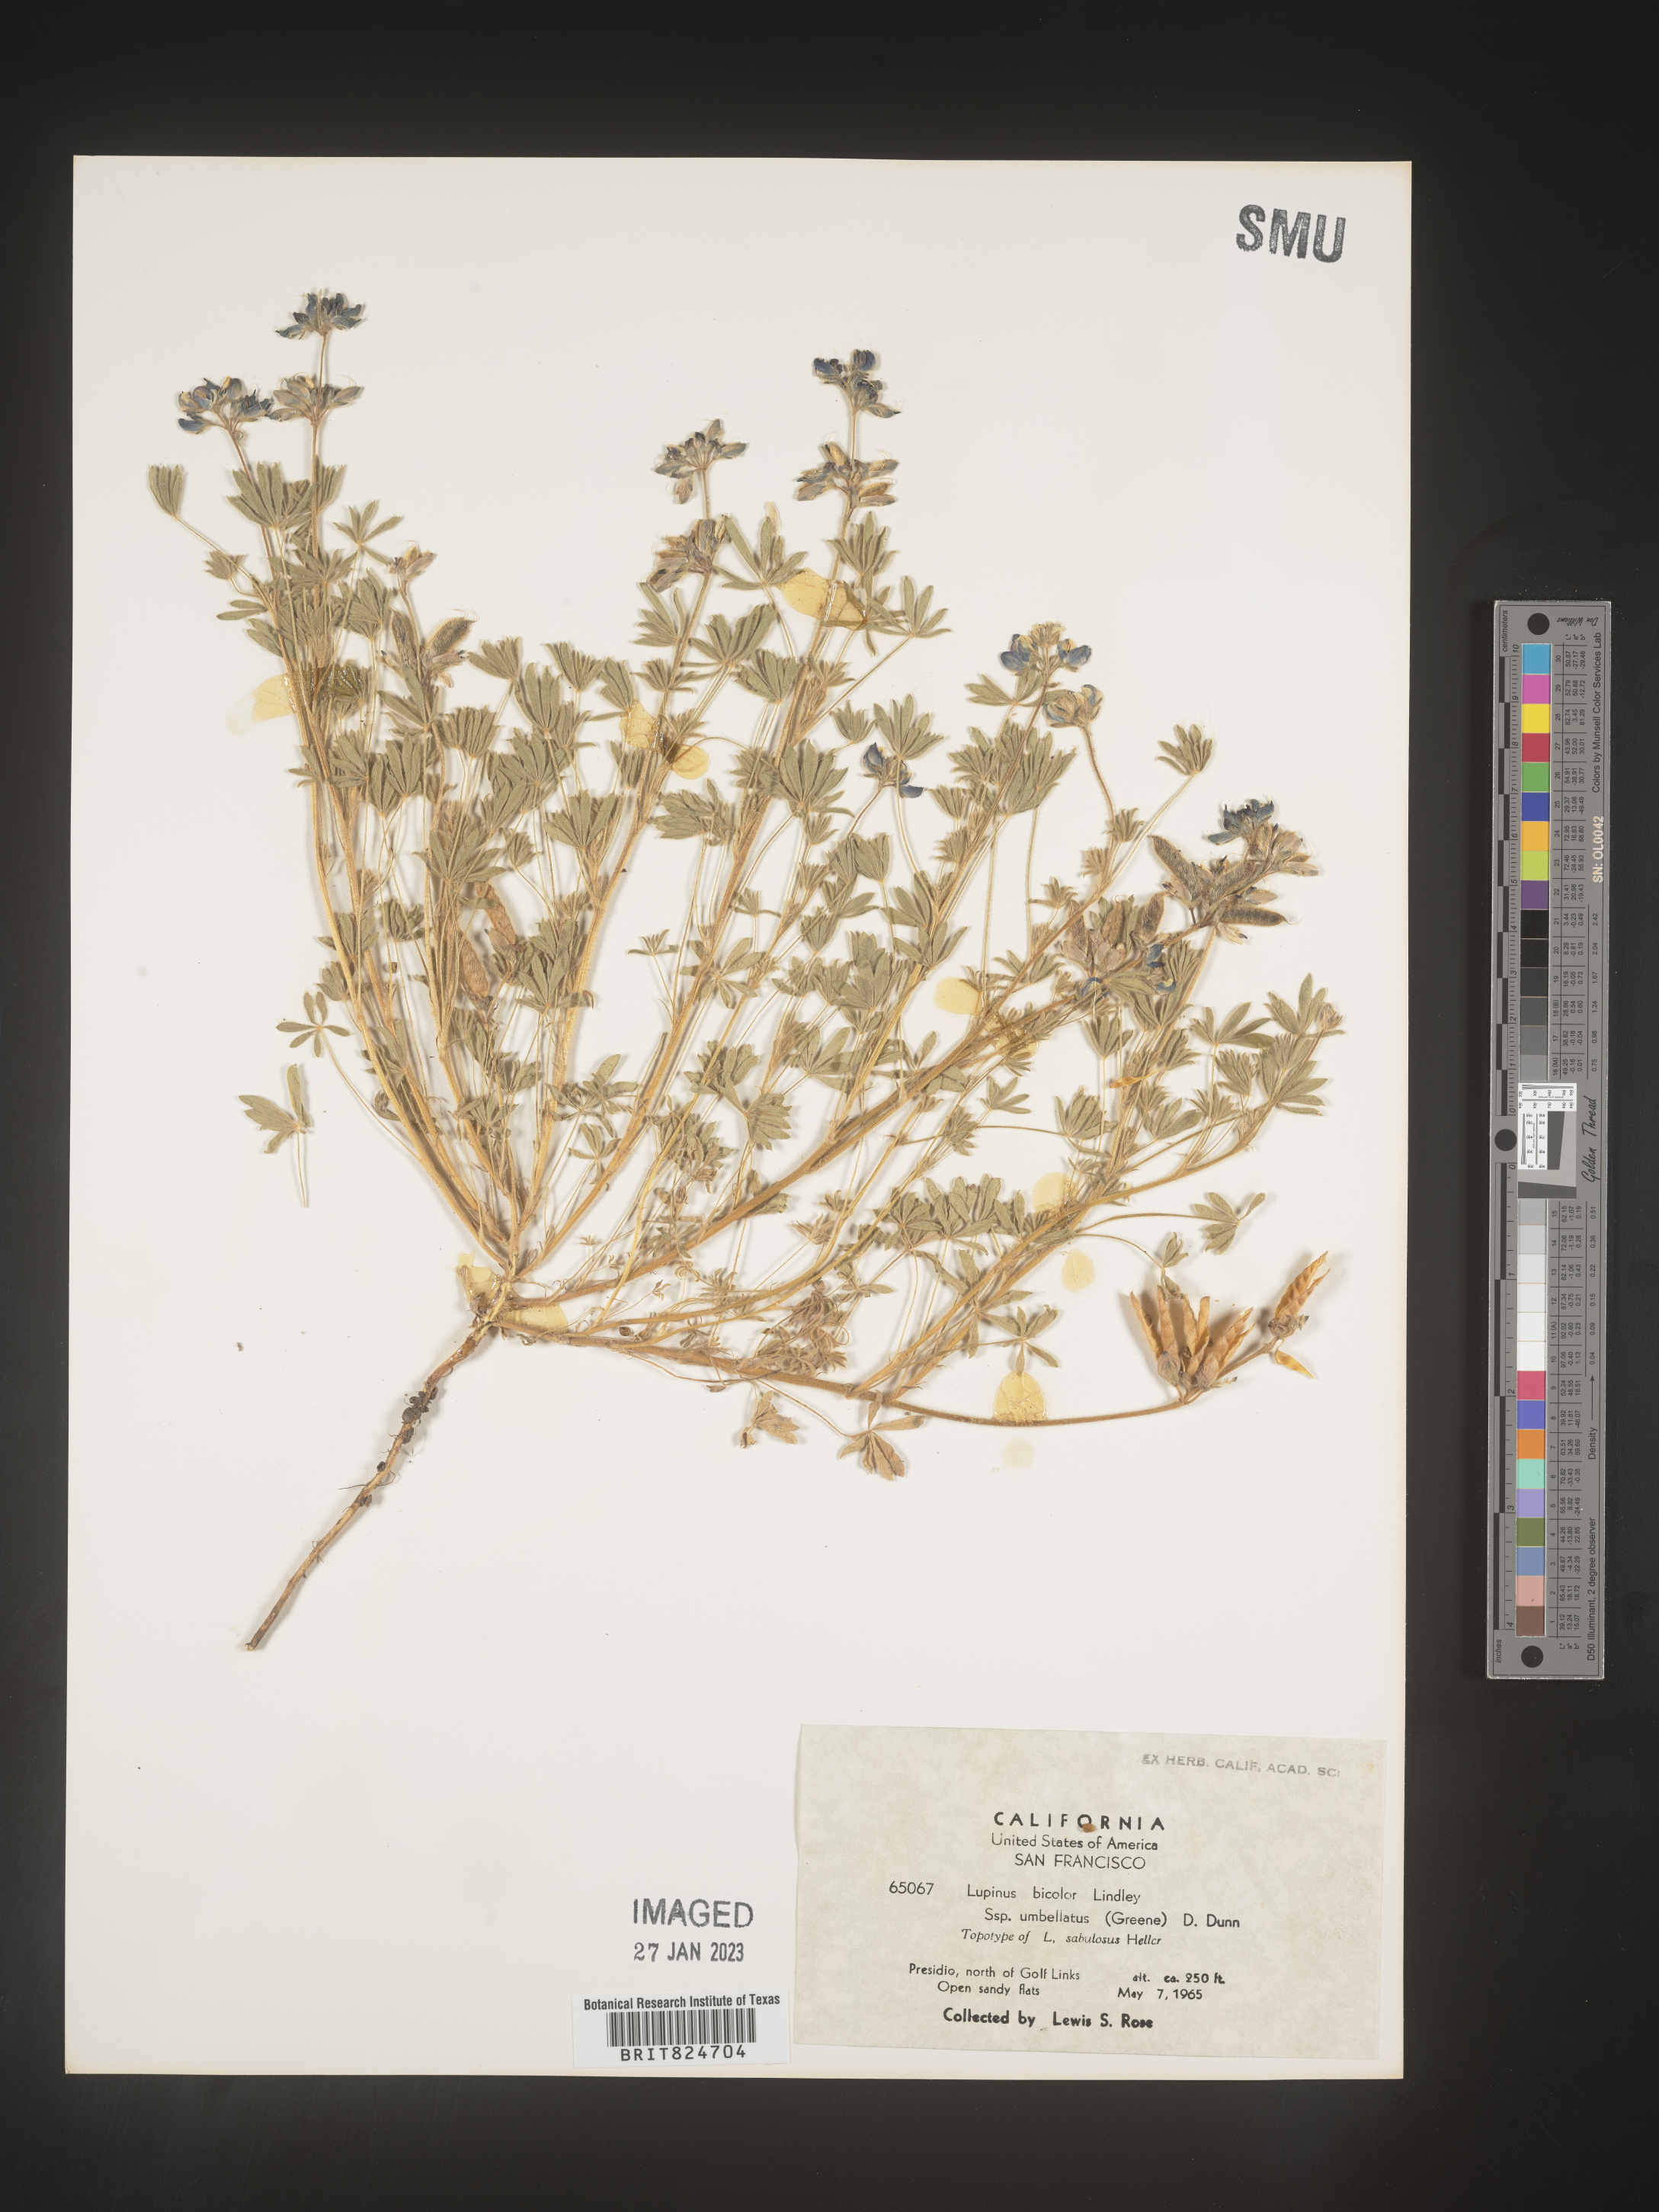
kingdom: Plantae
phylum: Tracheophyta
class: Magnoliopsida
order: Fabales
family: Fabaceae
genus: Lupinus
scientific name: Lupinus bicolor
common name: Miniature lupine
